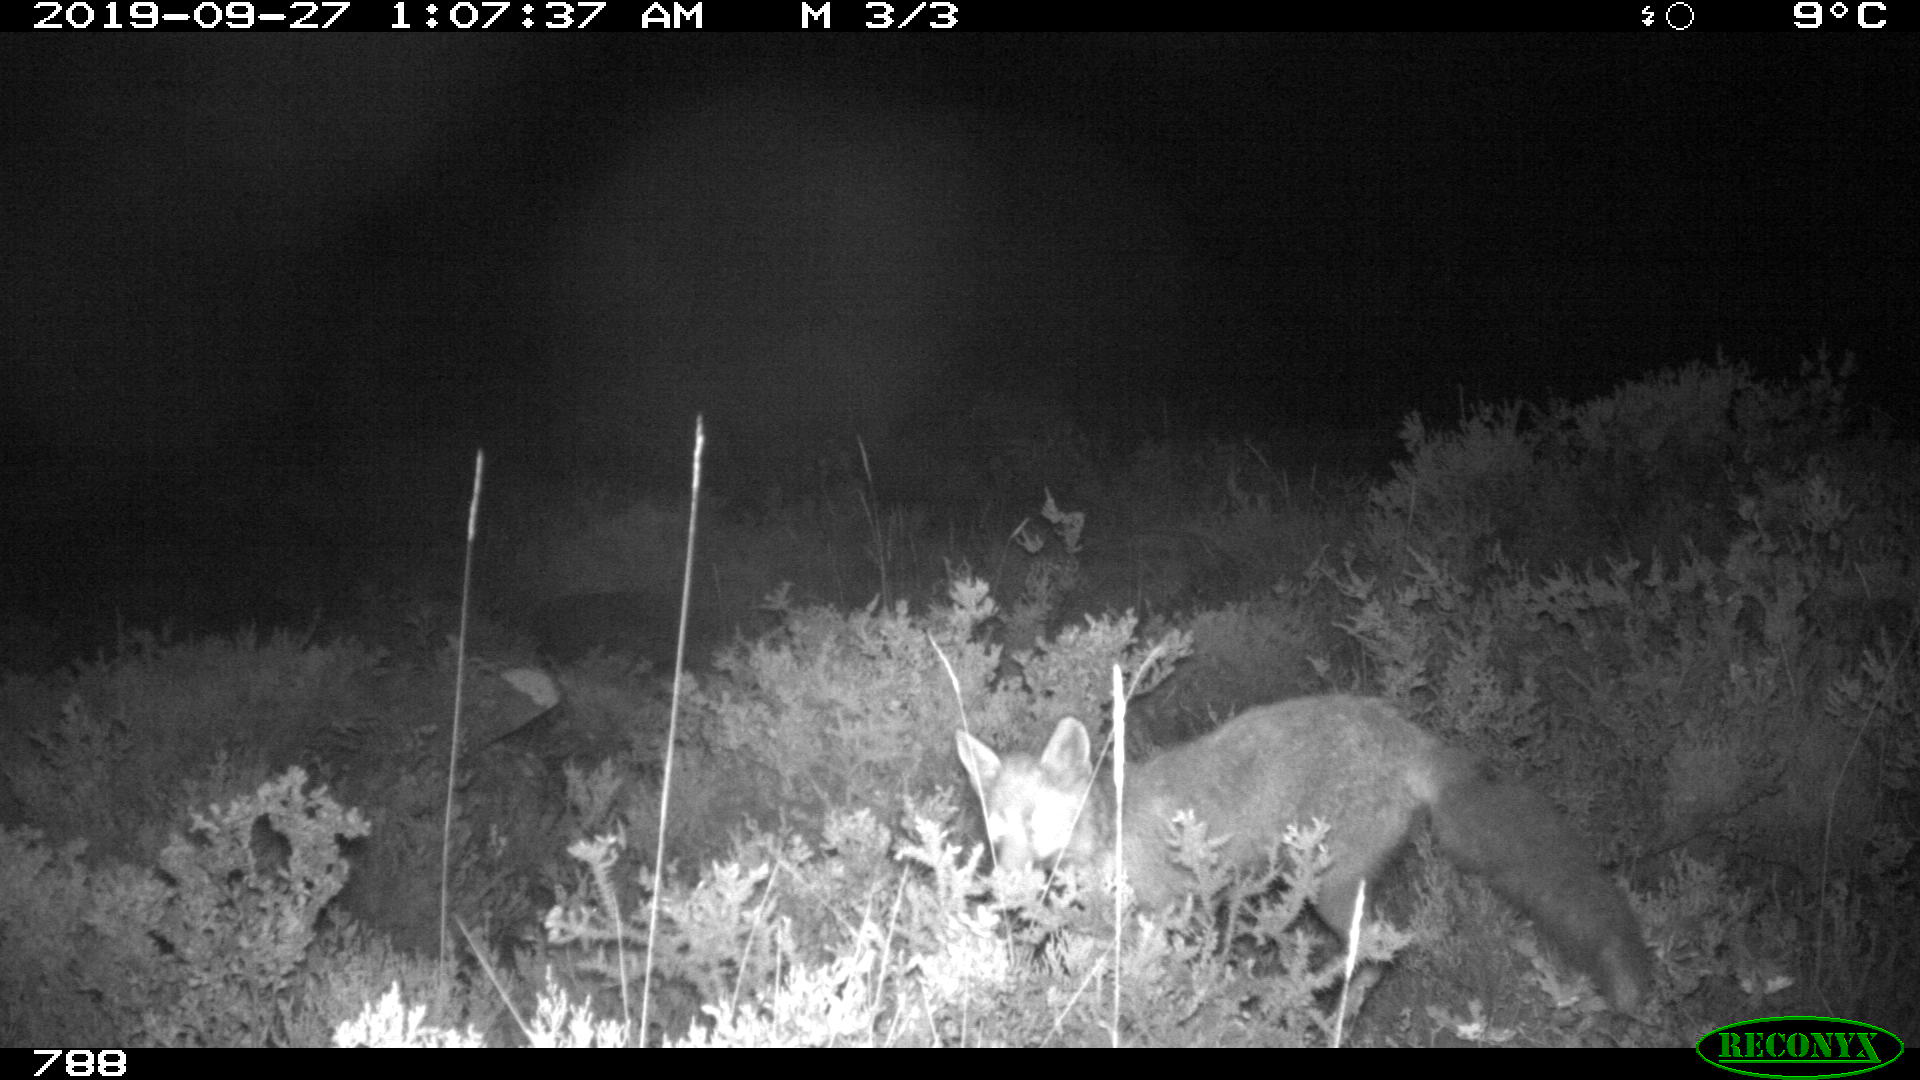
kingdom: Animalia
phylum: Chordata
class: Mammalia
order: Carnivora
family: Canidae
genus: Vulpes
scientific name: Vulpes vulpes
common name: Red fox
